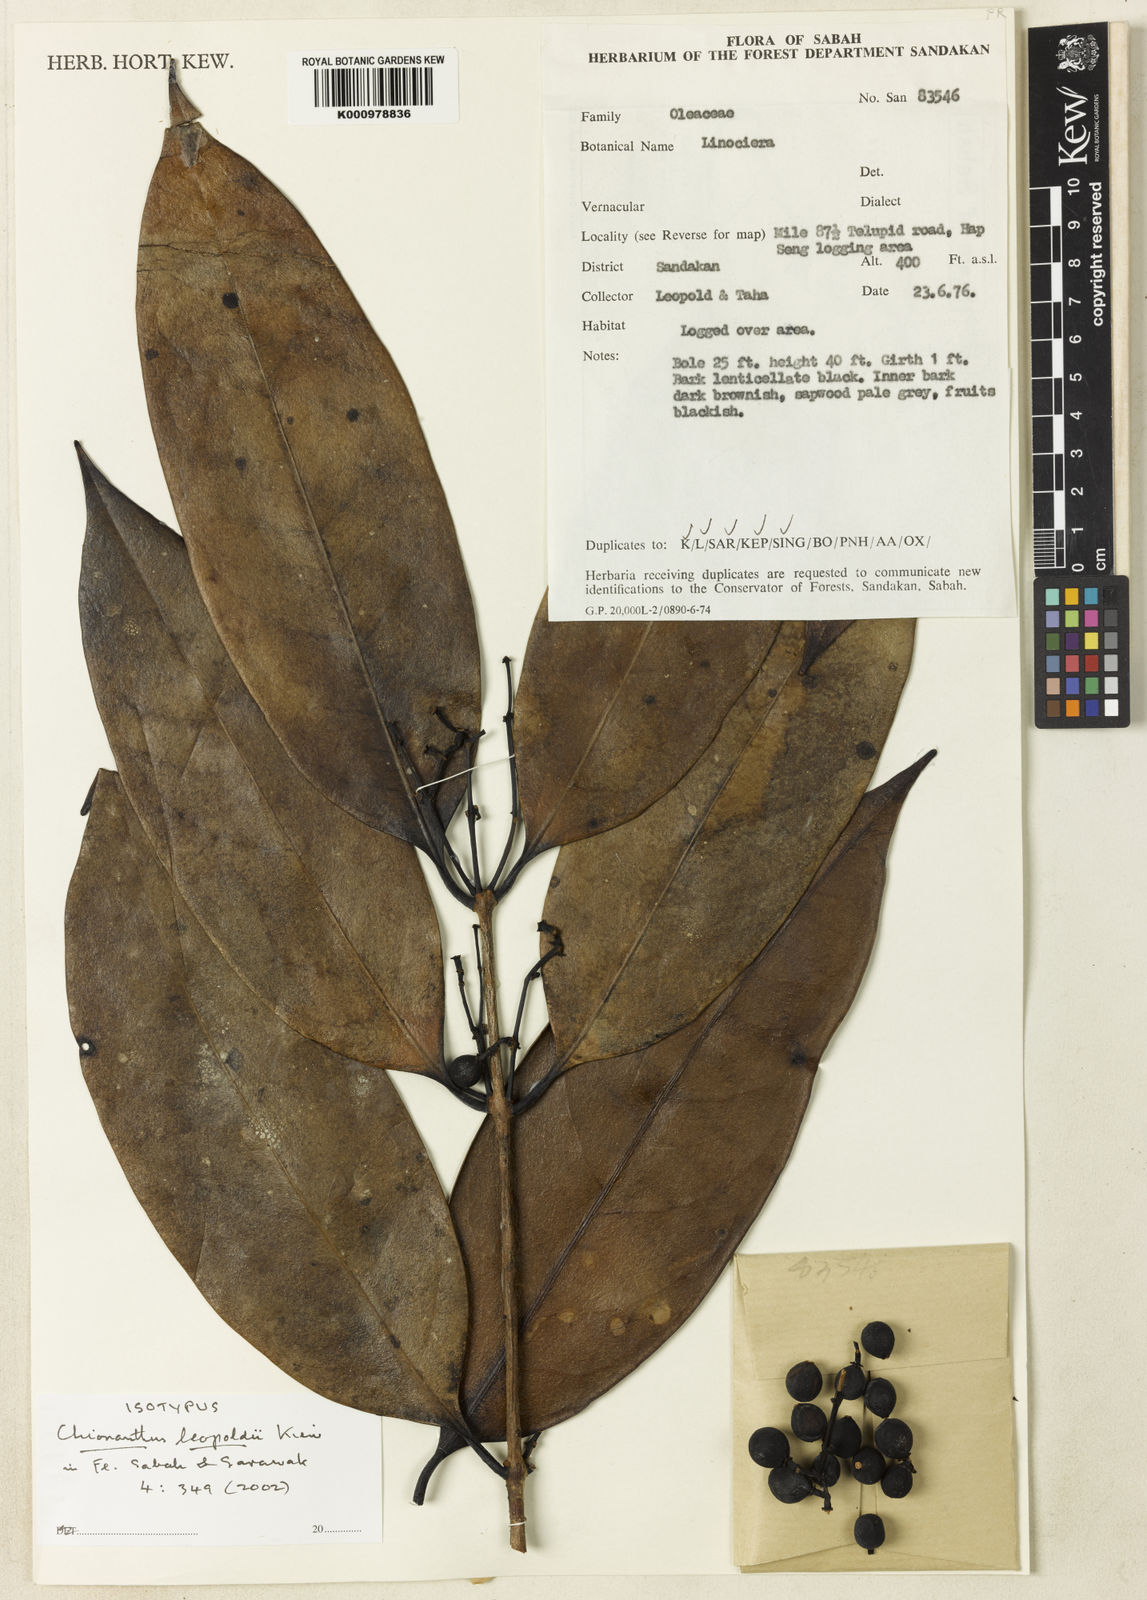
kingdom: Plantae
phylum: Tracheophyta
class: Magnoliopsida
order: Lamiales
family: Oleaceae
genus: Chionanthus
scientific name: Chionanthus leopoldii
